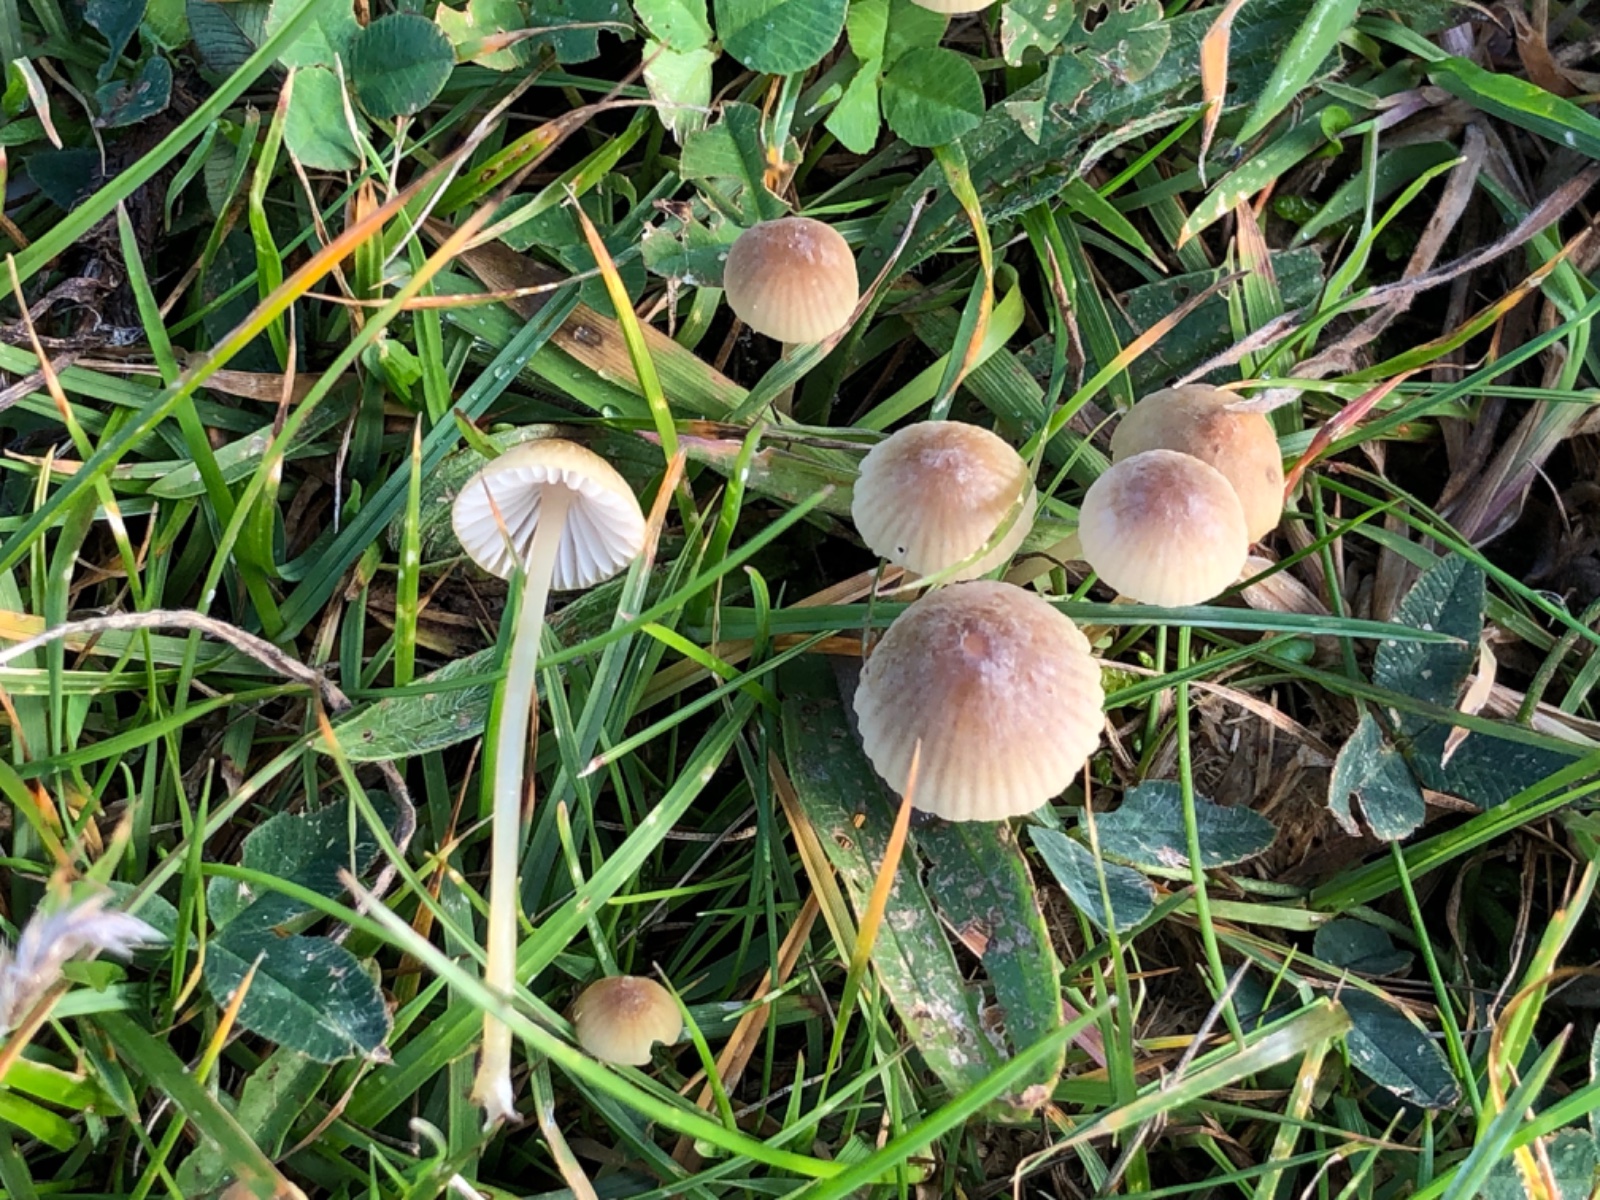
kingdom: Fungi
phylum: Basidiomycota
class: Agaricomycetes
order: Agaricales
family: Mycenaceae
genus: Mycena
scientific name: Mycena olivaceomarginata
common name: brunægget huesvamp
